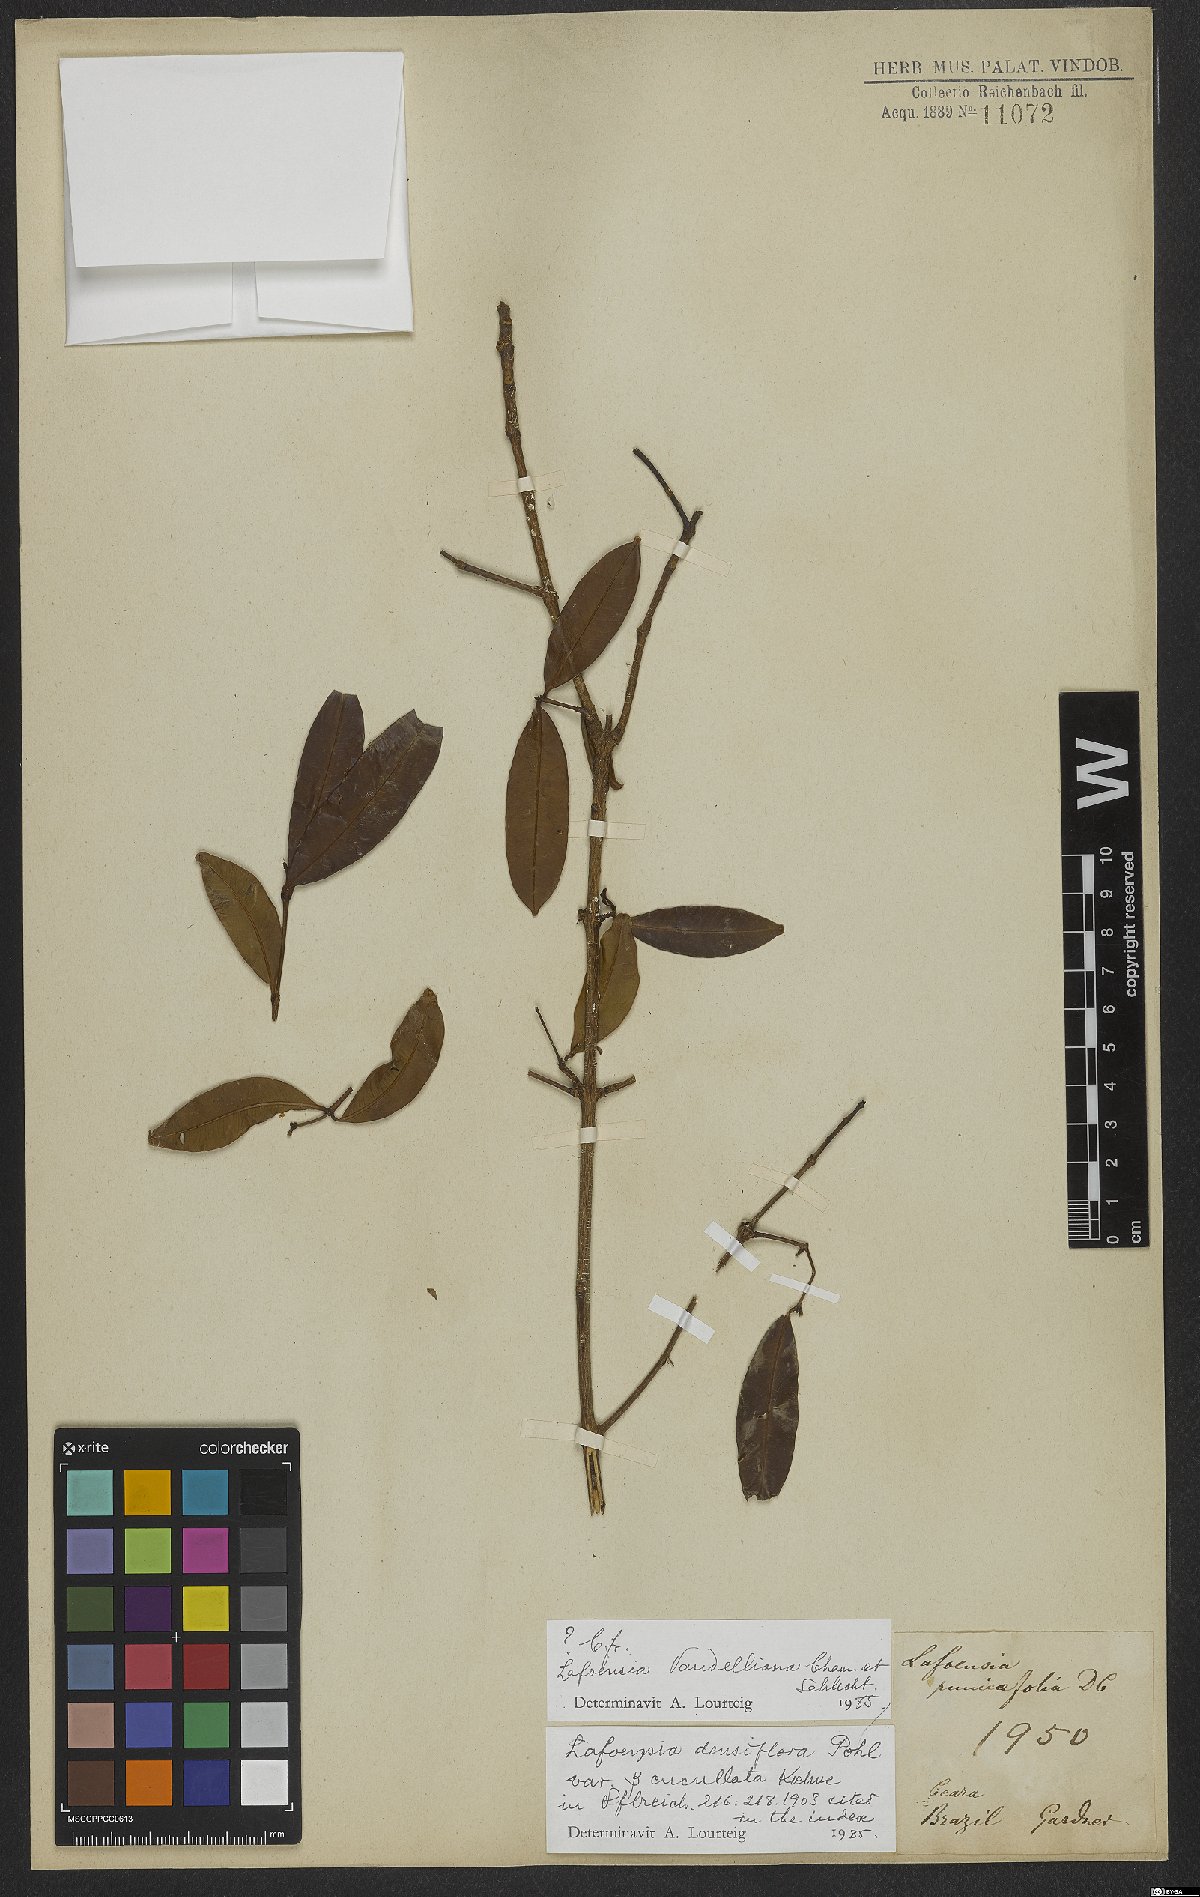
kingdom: Plantae
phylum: Tracheophyta
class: Magnoliopsida
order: Myrtales
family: Lythraceae
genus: Lafoensia
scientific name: Lafoensia vandelliana
